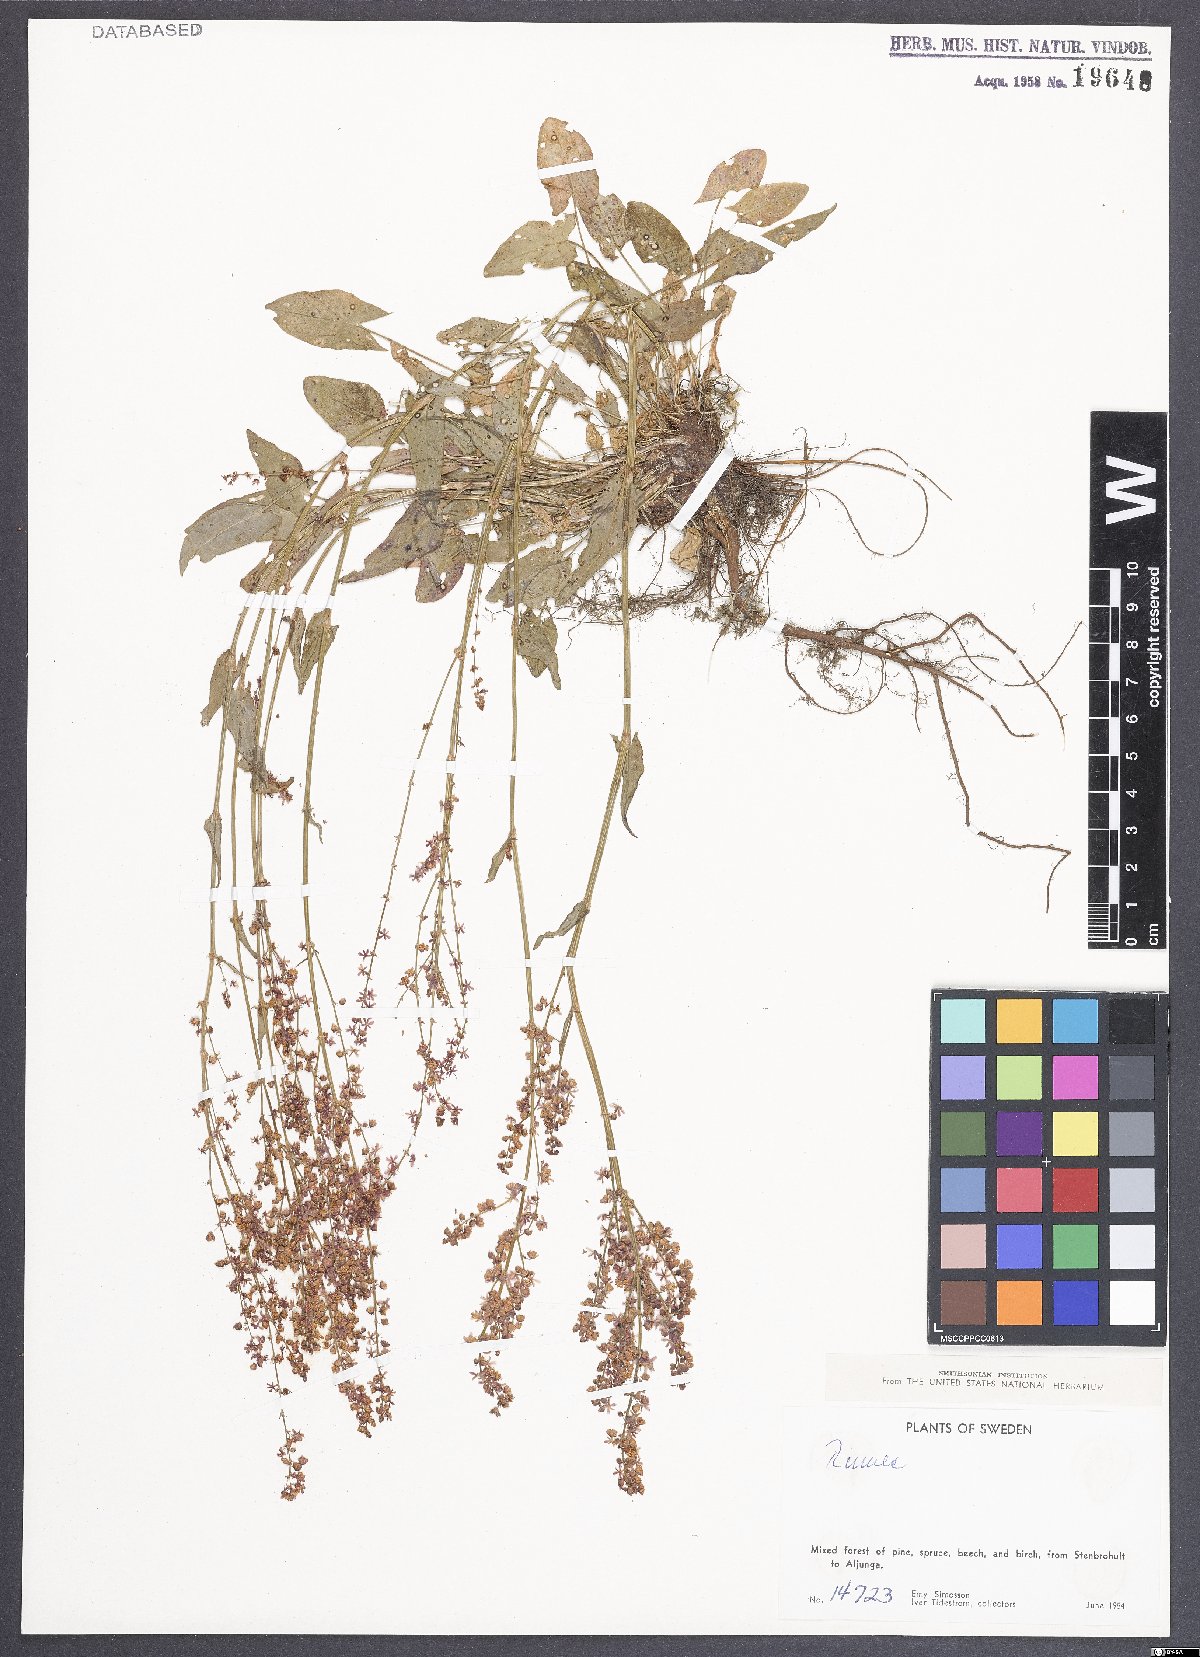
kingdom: Plantae
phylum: Tracheophyta
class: Magnoliopsida
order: Caryophyllales
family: Polygonaceae
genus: Rumex
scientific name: Rumex acetosa
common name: Garden sorrel
